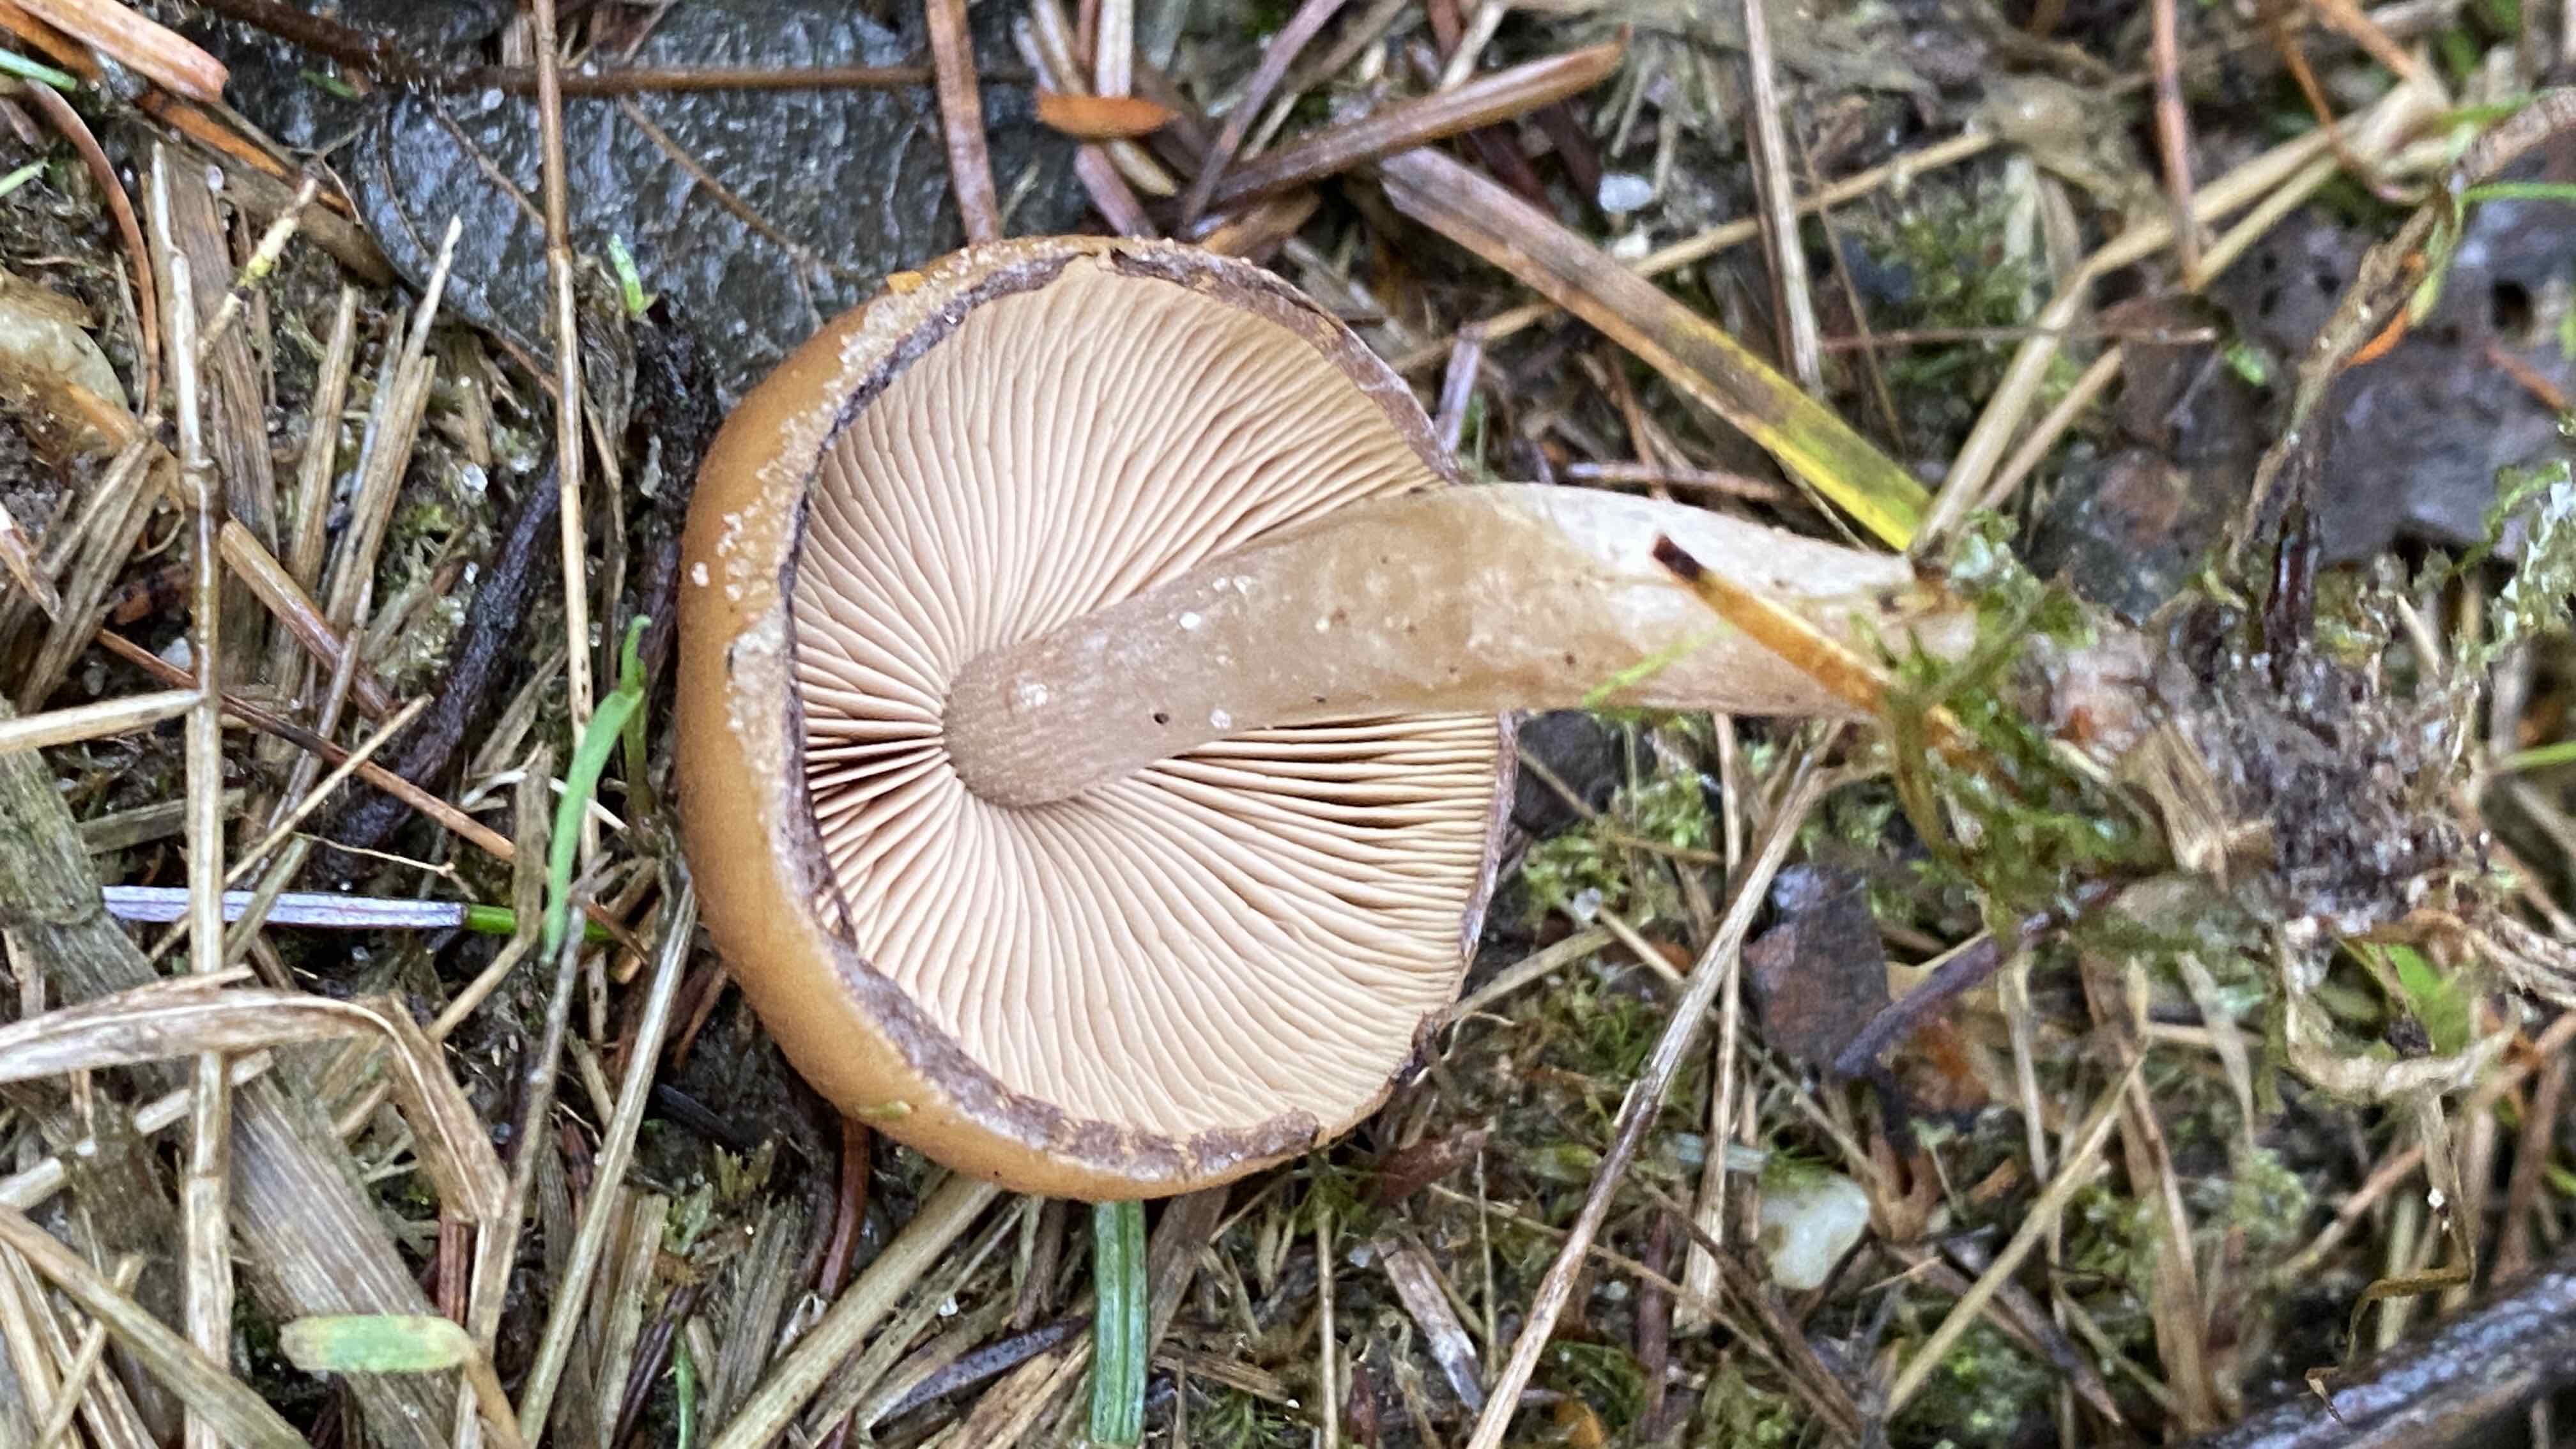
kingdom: Fungi
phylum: Basidiomycota
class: Agaricomycetes
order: Agaricales
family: Psathyrellaceae
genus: Psathyrella
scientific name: Psathyrella
